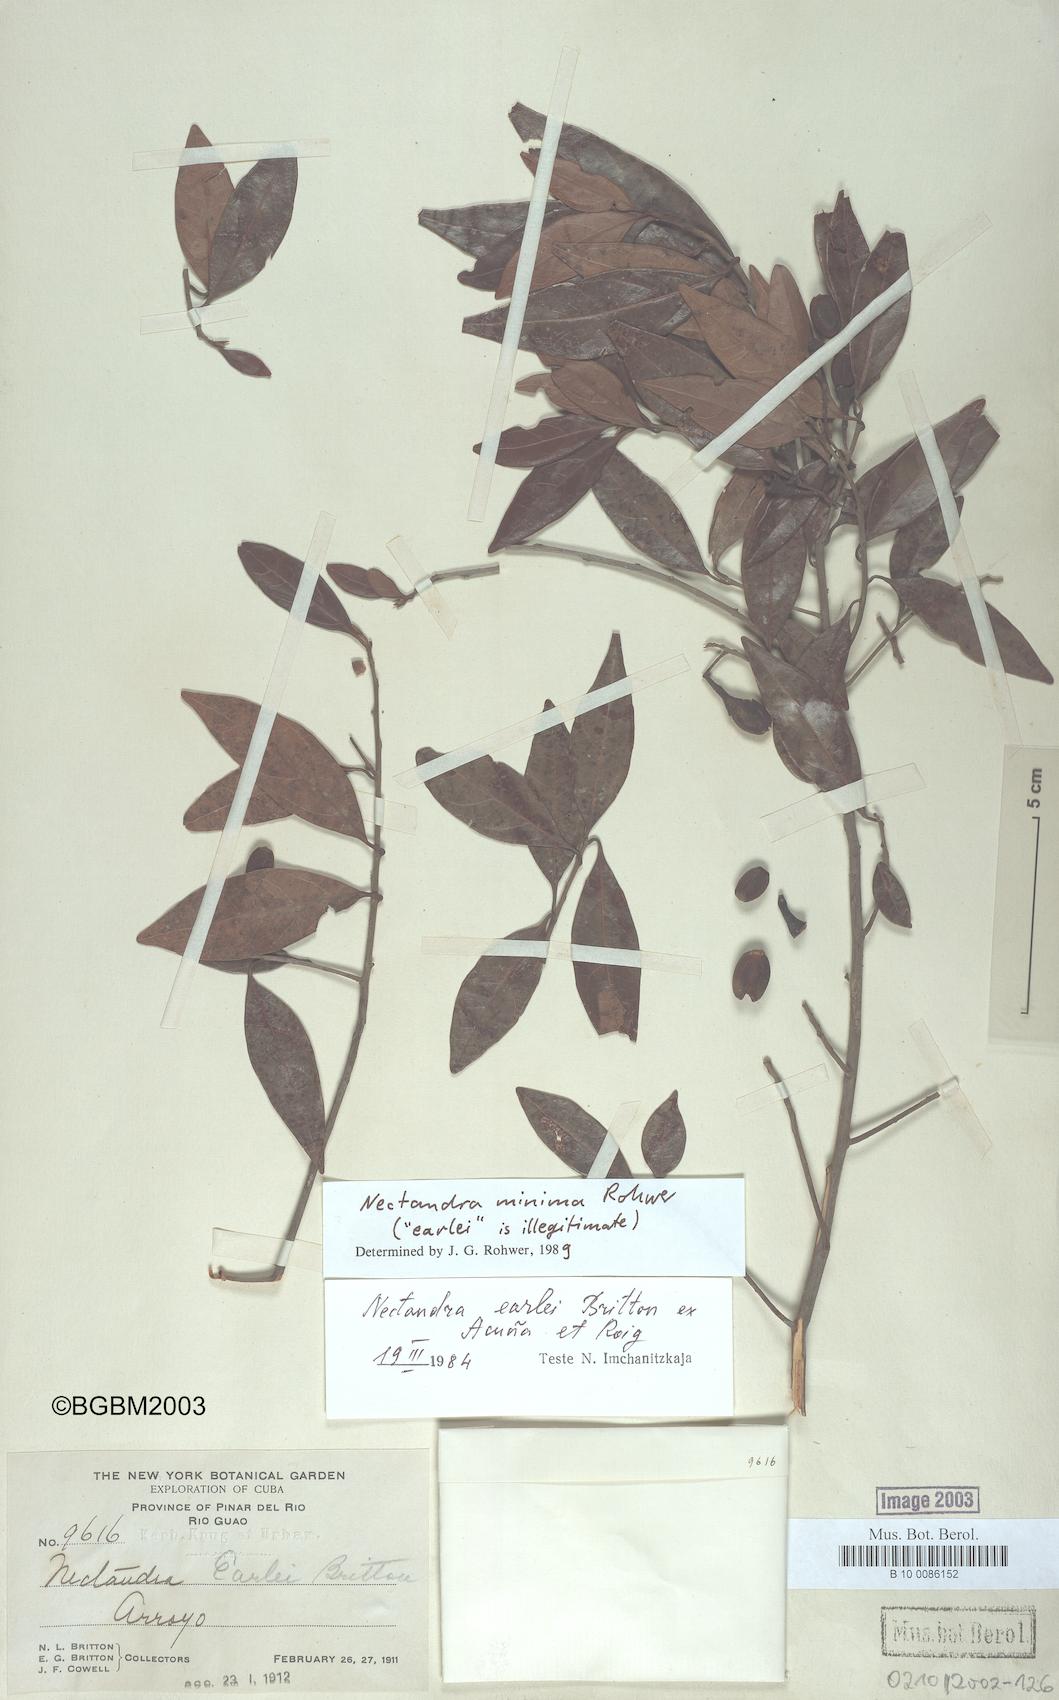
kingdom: Plantae
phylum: Tracheophyta
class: Magnoliopsida
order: Laurales
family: Lauraceae
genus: Damburneya
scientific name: Damburneya minima
